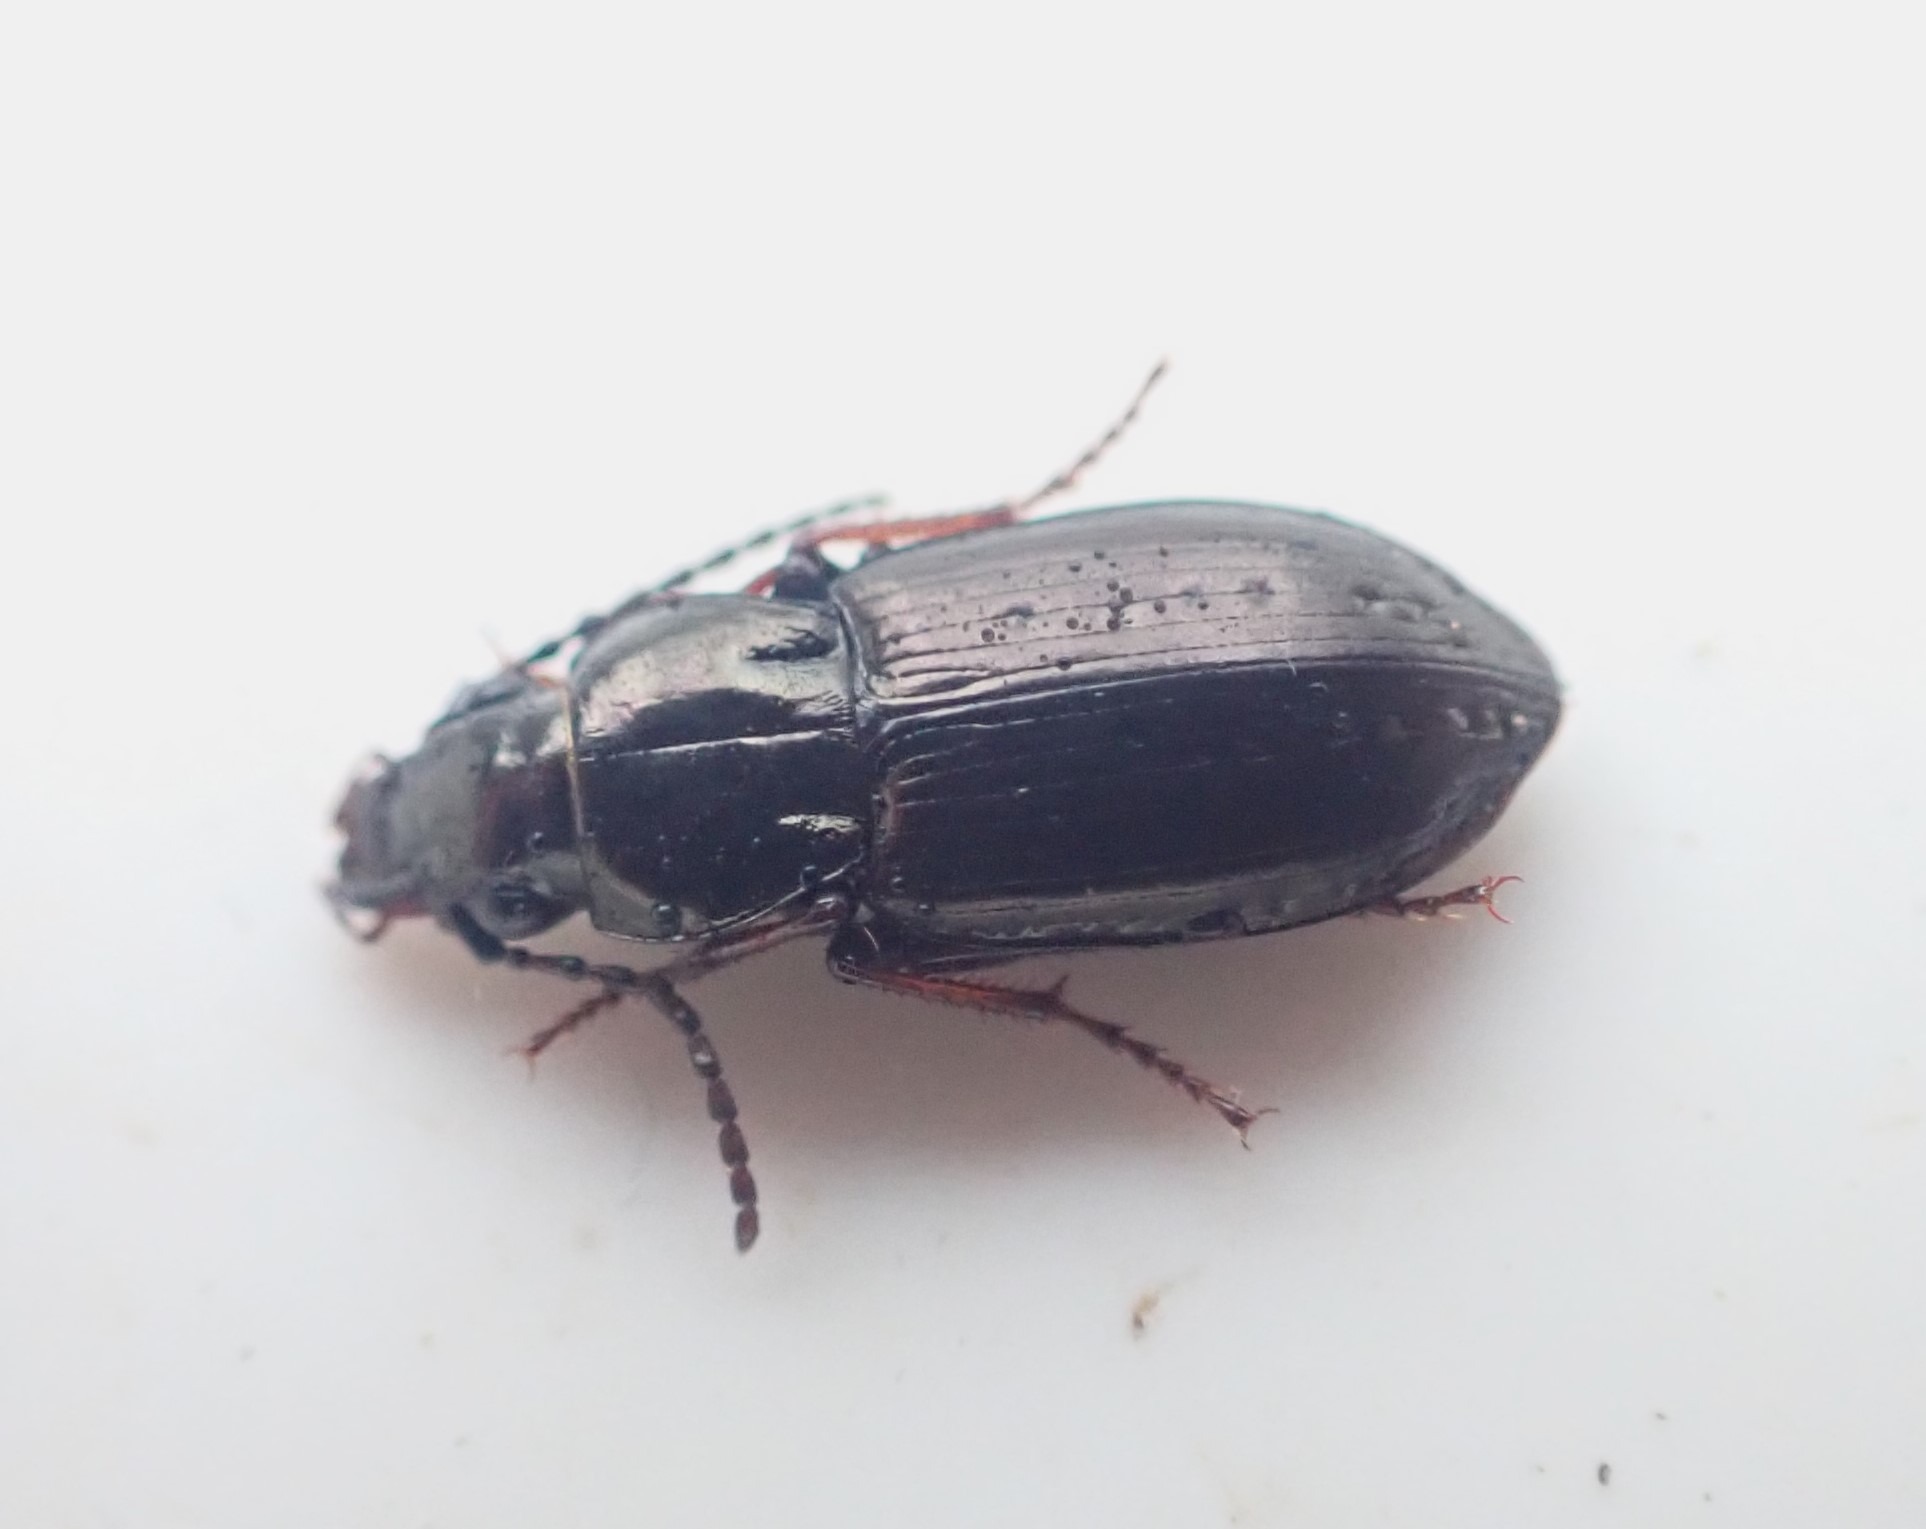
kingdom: Animalia
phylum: Arthropoda
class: Insecta
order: Coleoptera
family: Carabidae
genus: Pterostichus
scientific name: Pterostichus oblongopunctatus
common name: Bronzejordløber
